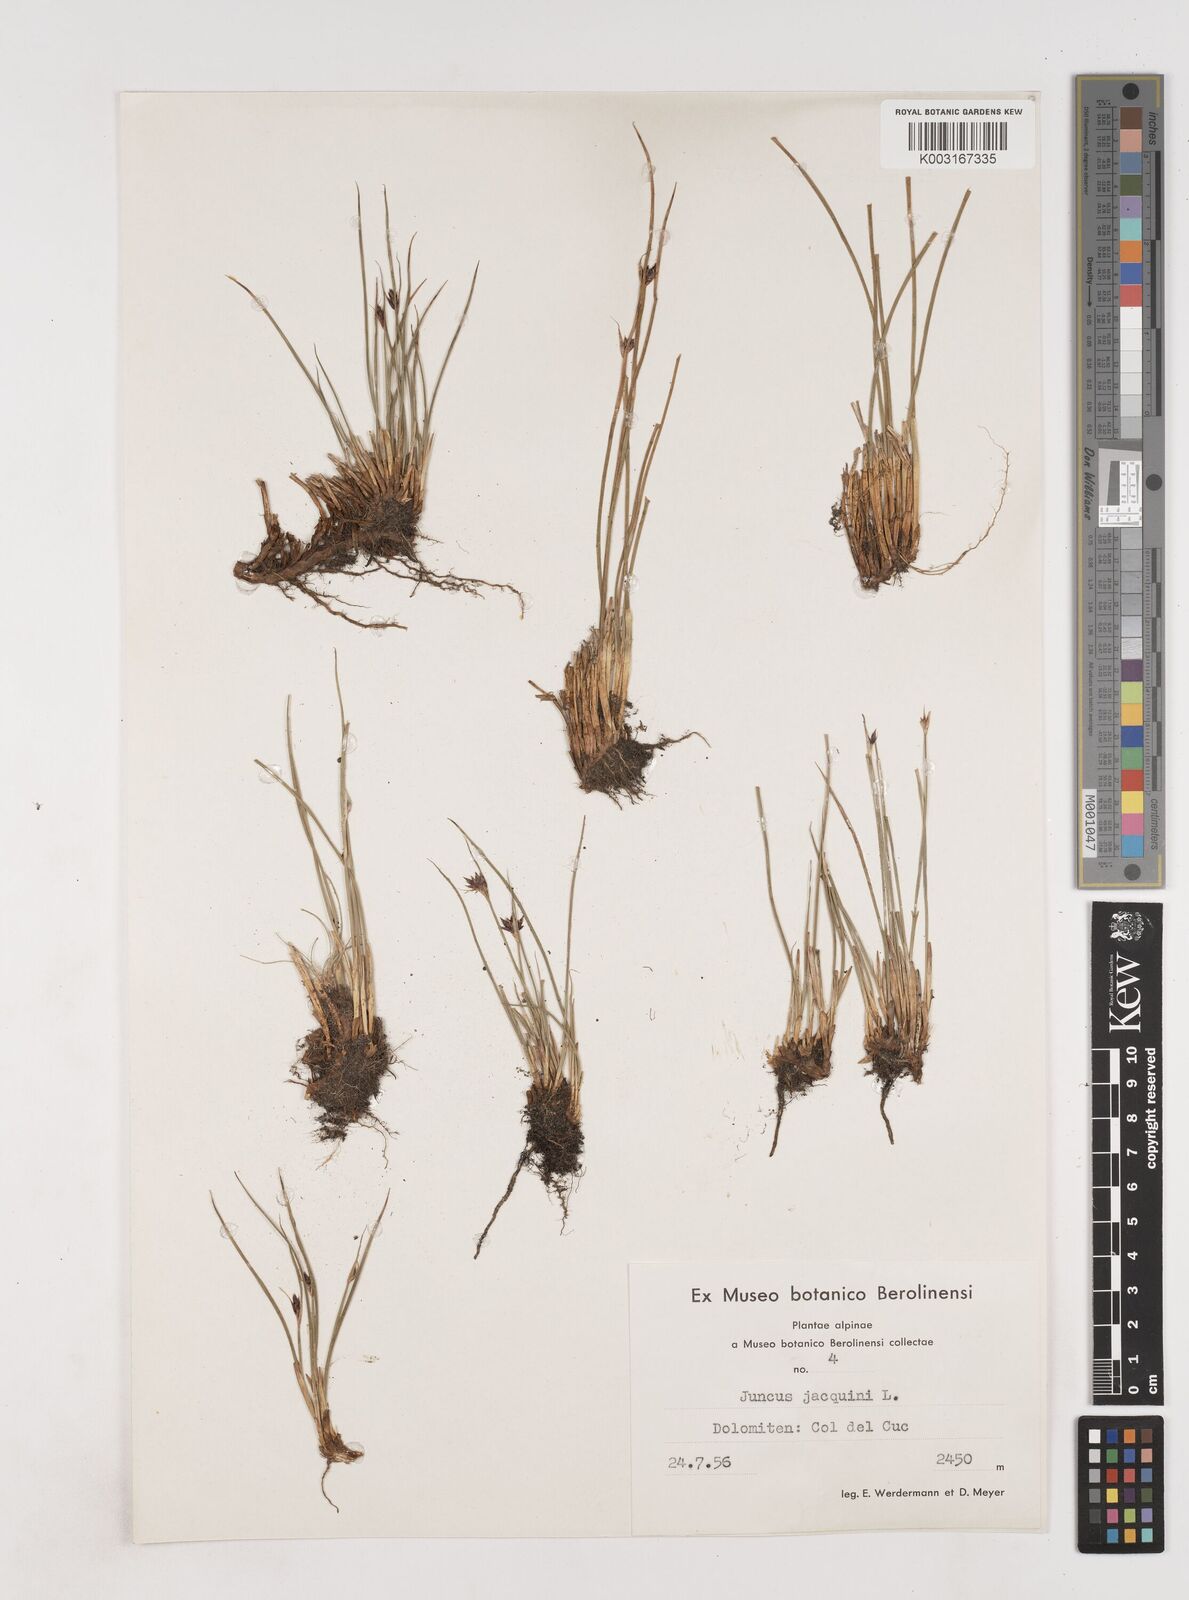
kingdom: Plantae
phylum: Tracheophyta
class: Liliopsida
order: Poales
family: Juncaceae
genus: Juncus
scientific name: Juncus jacquinii
